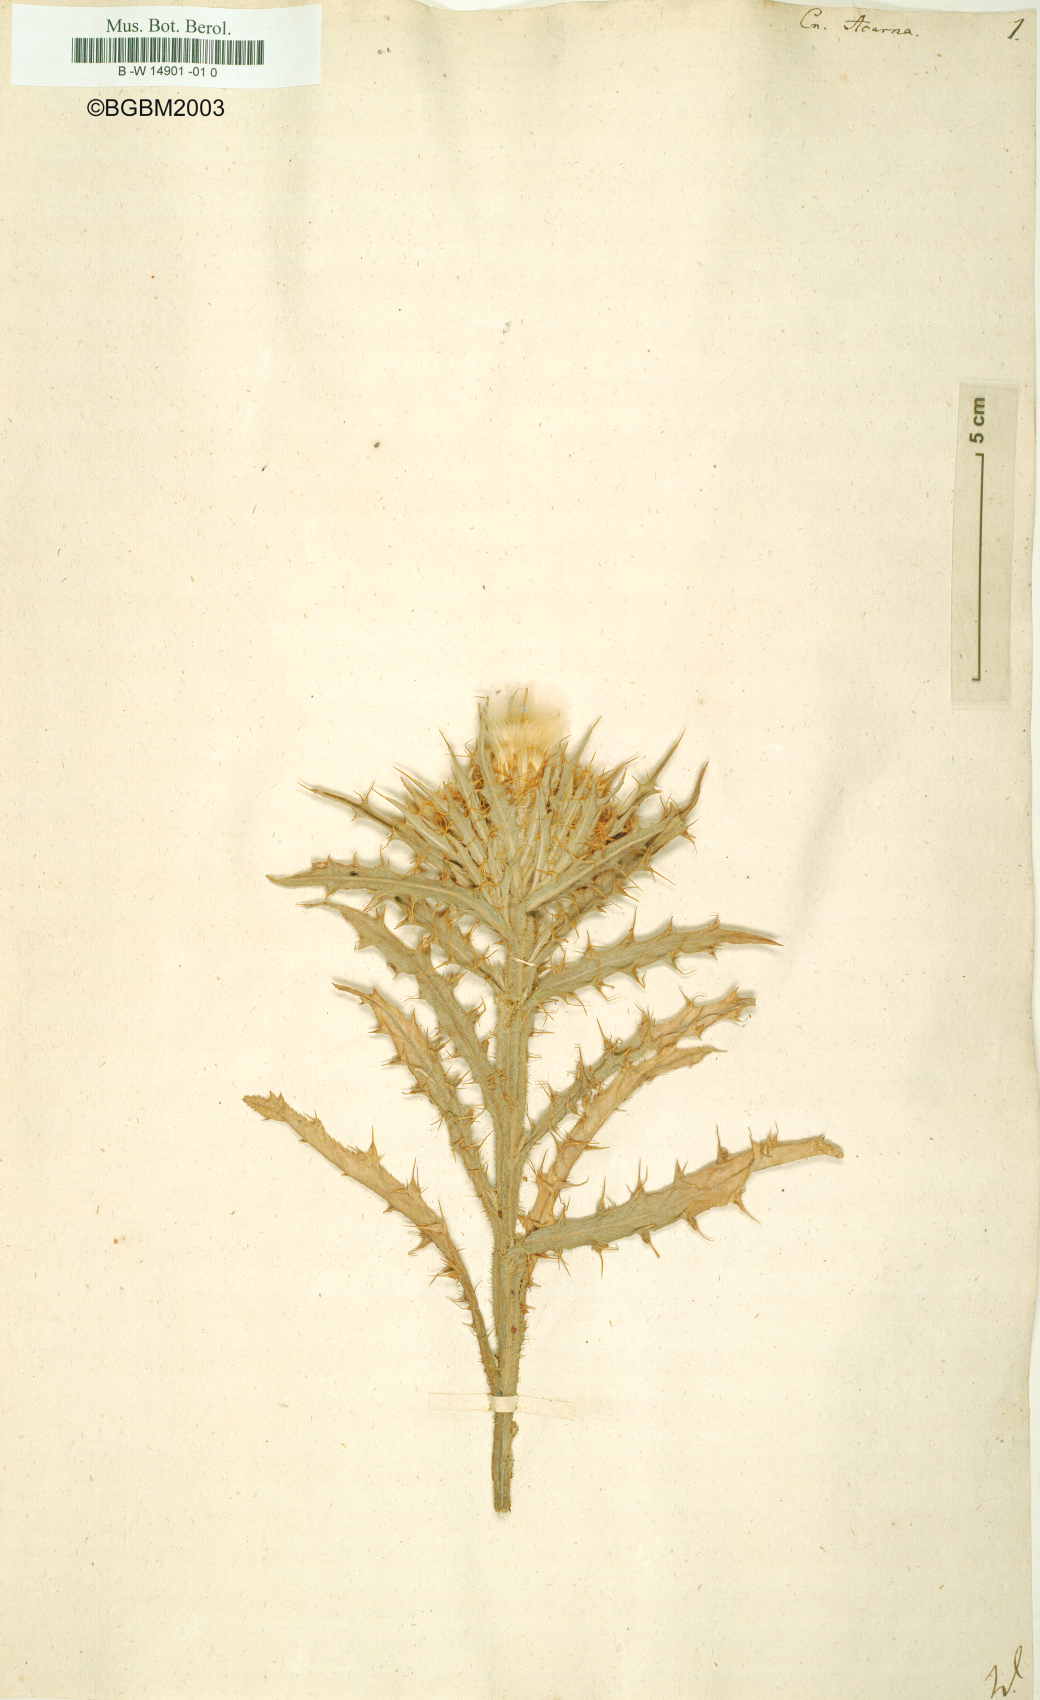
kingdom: Plantae
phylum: Tracheophyta
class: Magnoliopsida
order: Asterales
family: Asteraceae
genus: Picnomon
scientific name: Picnomon acarna
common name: Soldier thistle
